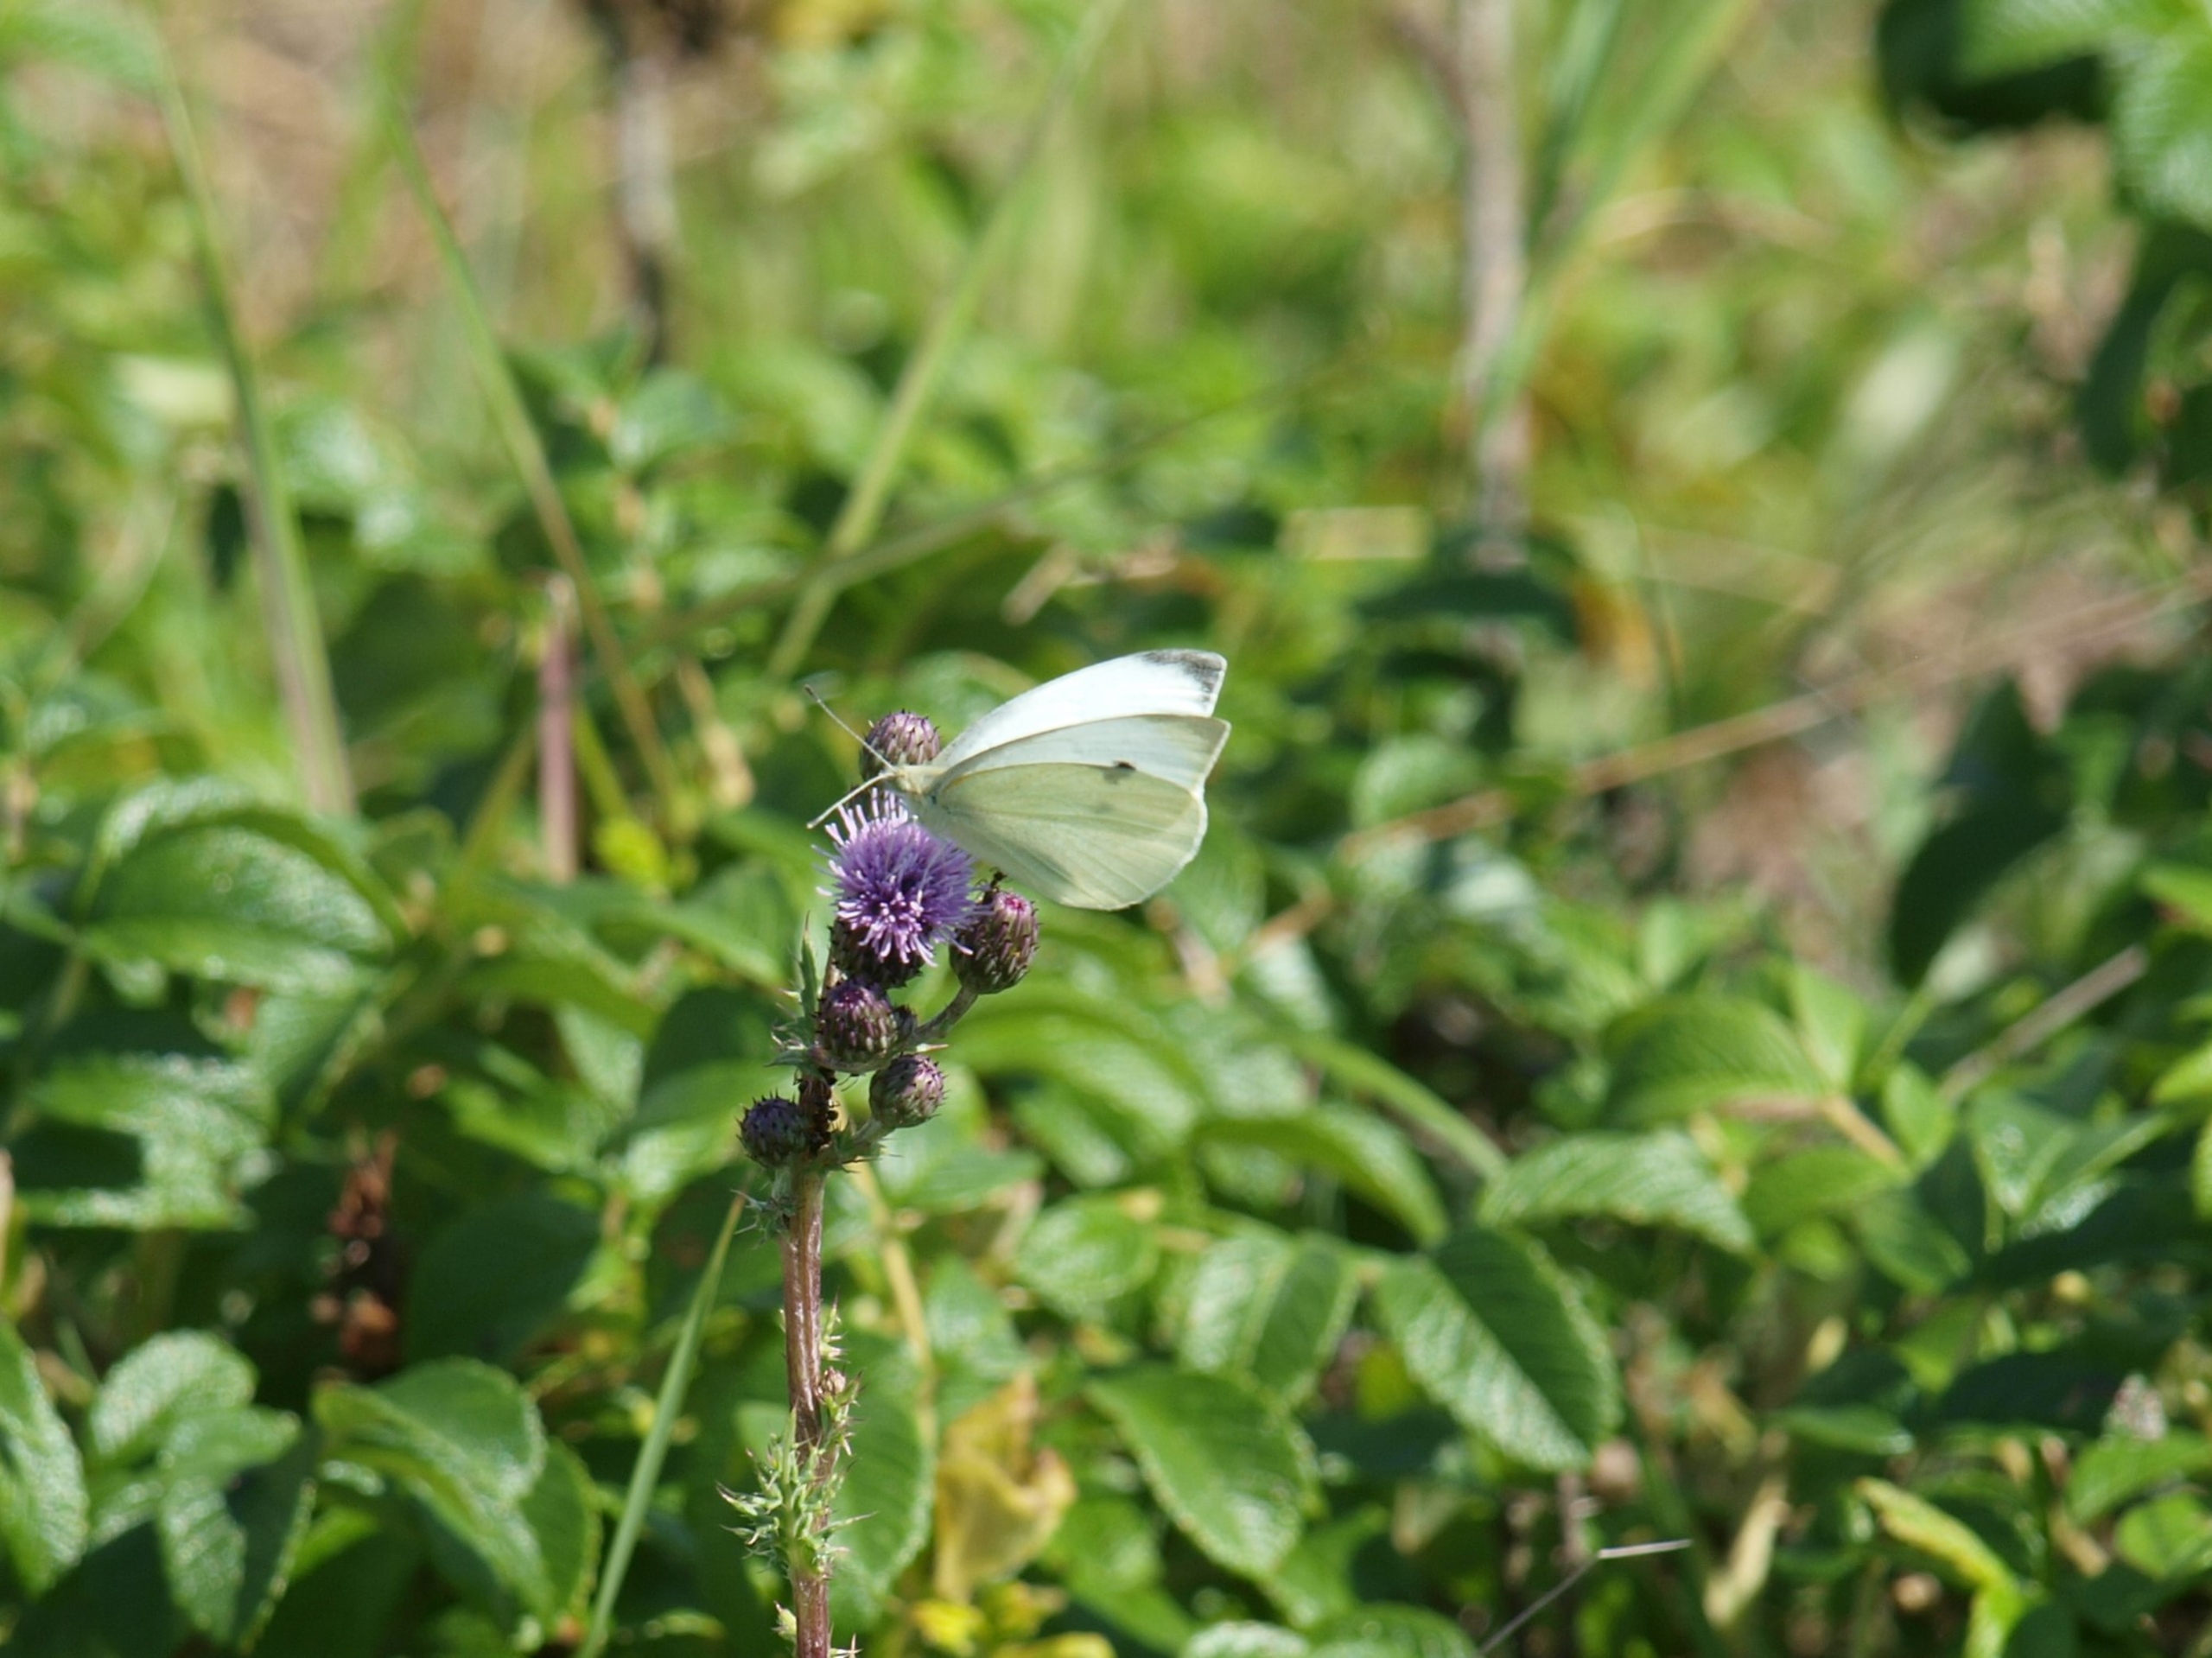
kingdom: Animalia
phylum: Arthropoda
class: Insecta
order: Lepidoptera
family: Pieridae
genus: Pieris
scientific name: Pieris rapae
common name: Lille kålsommerfugl
